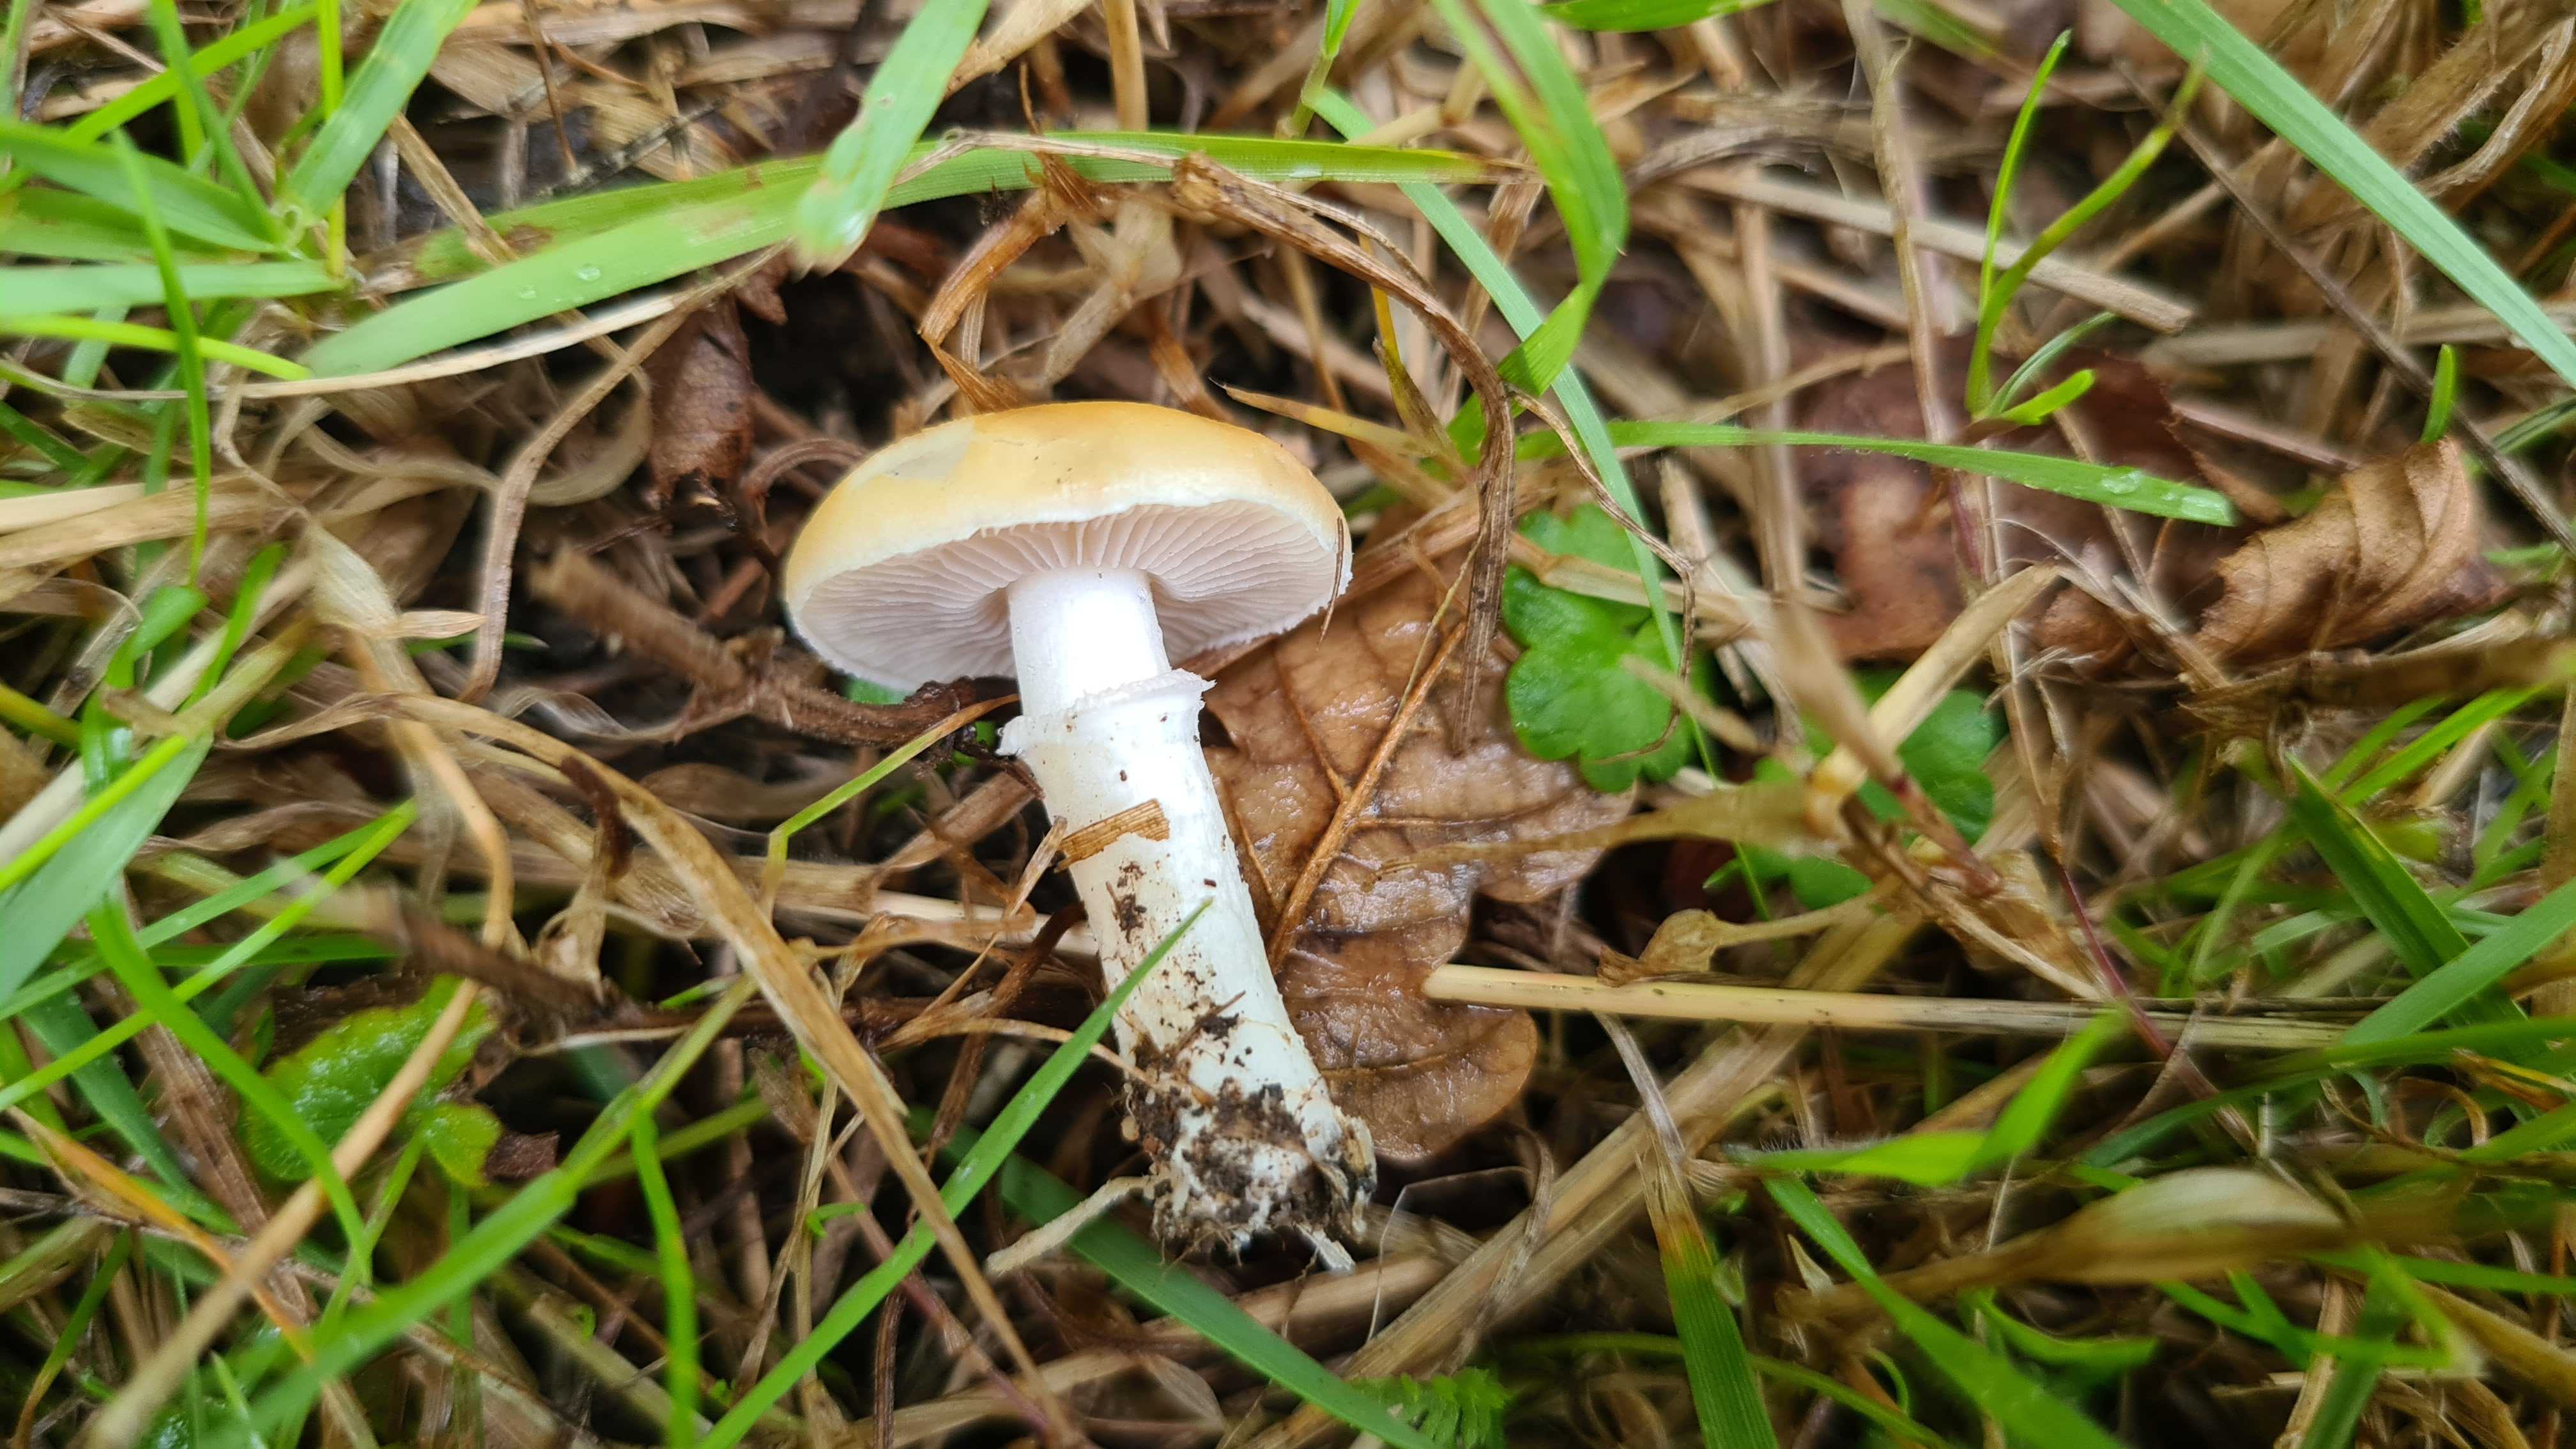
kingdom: Fungi
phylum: Basidiomycota
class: Agaricomycetes
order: Agaricales
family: Hymenogastraceae
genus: Psilocybe
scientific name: Psilocybe coronilla
